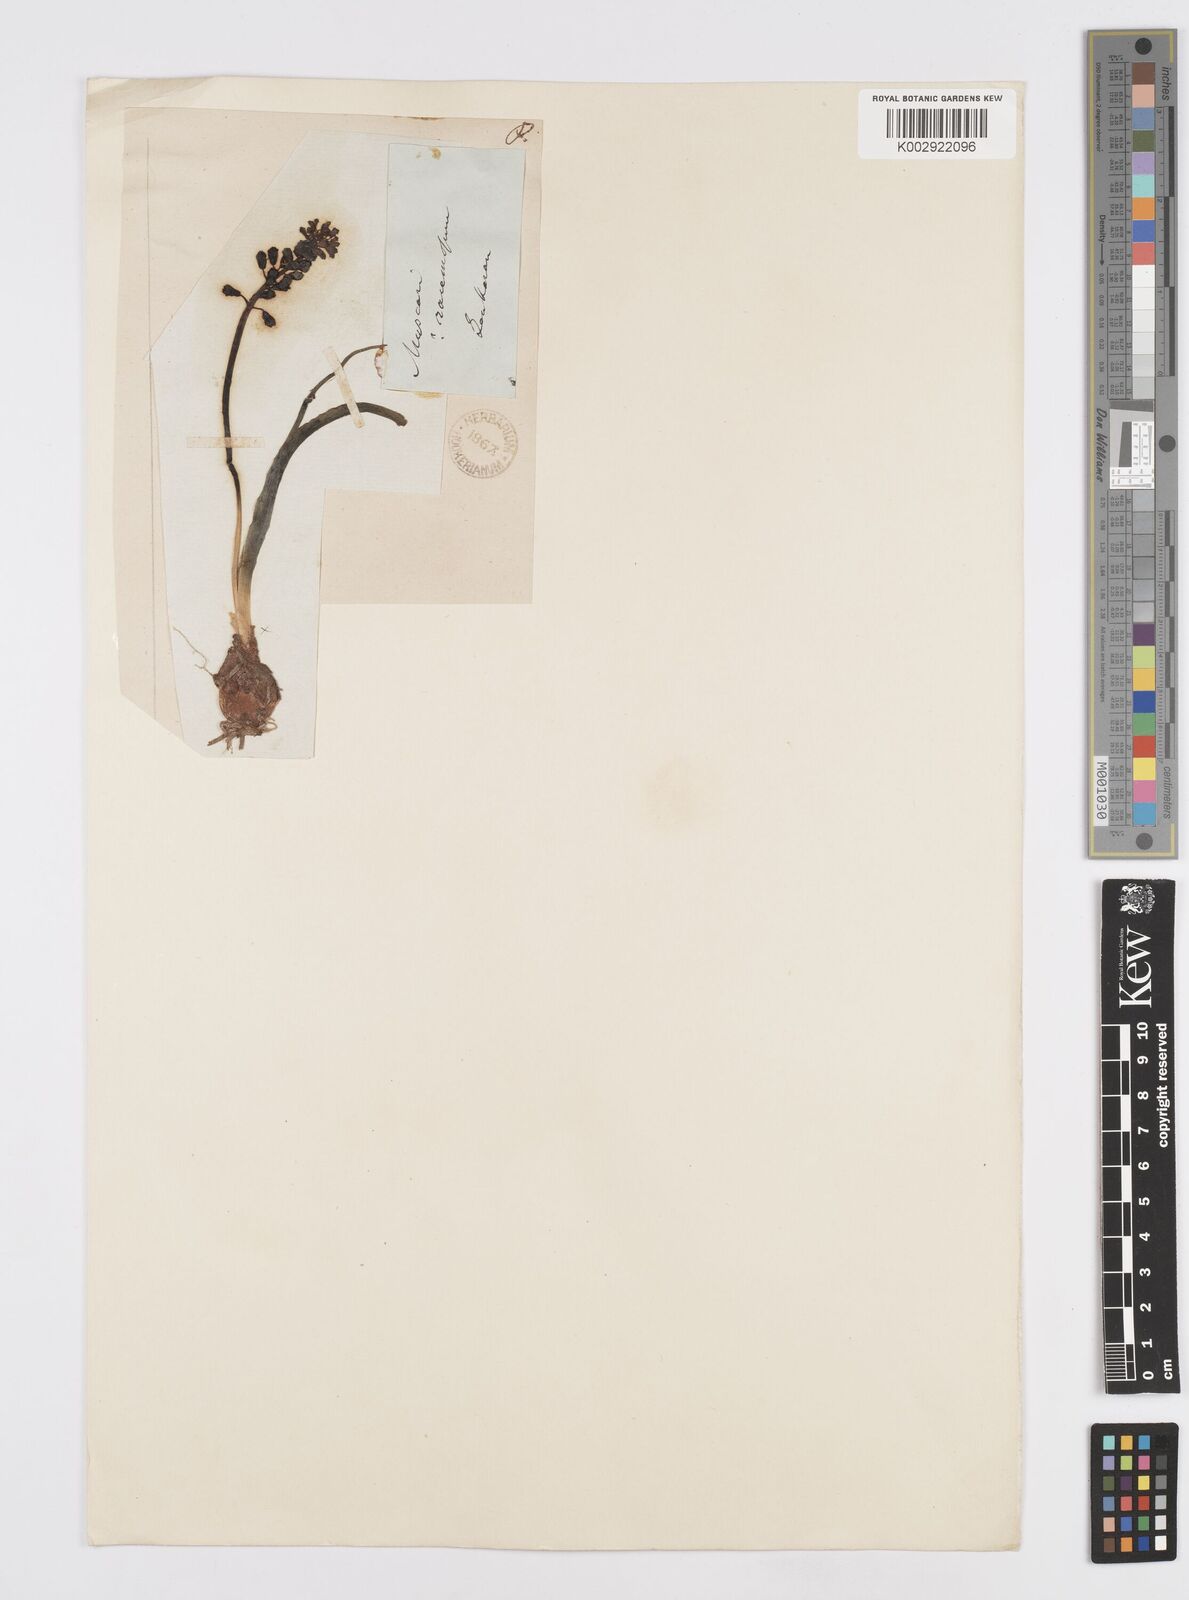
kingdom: Plantae
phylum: Tracheophyta
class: Liliopsida
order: Asparagales
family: Asparagaceae
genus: Muscari
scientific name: Muscari caucasicum
